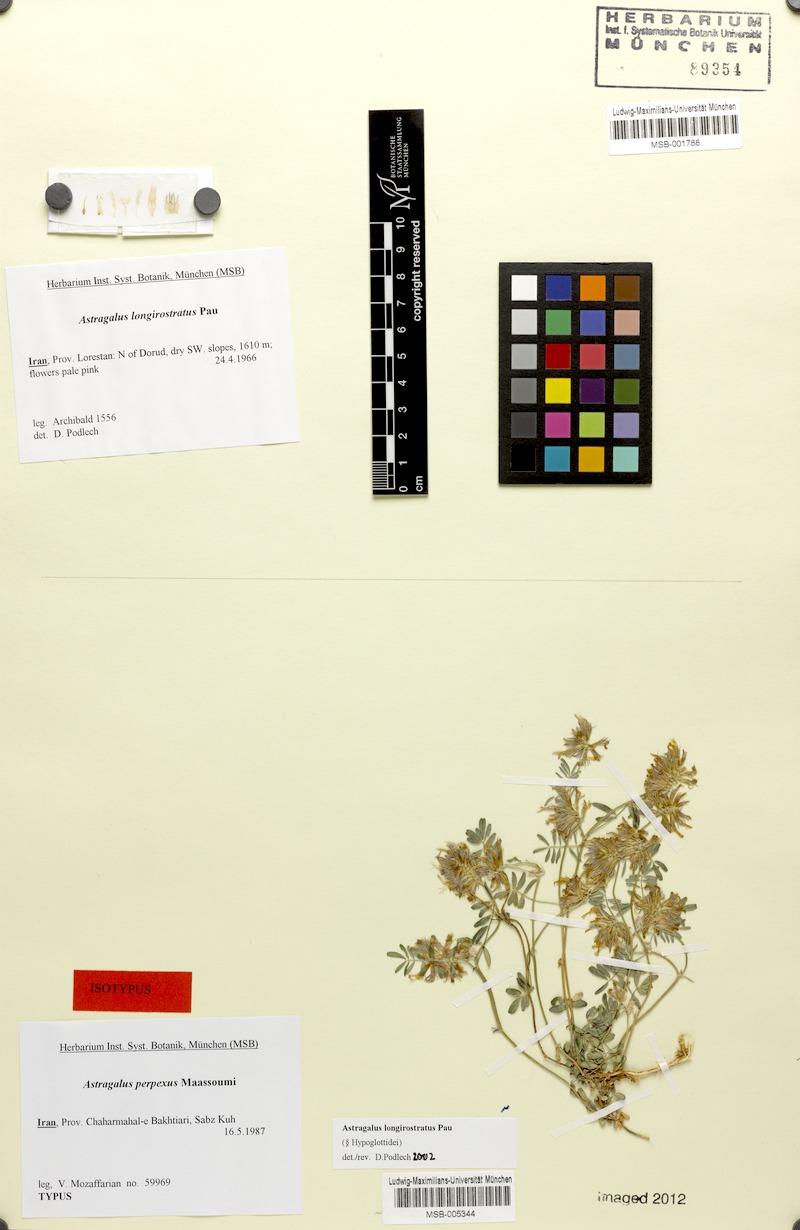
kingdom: Plantae
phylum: Tracheophyta
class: Magnoliopsida
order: Fabales
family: Fabaceae
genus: Astragalus
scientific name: Astragalus longirostratus
